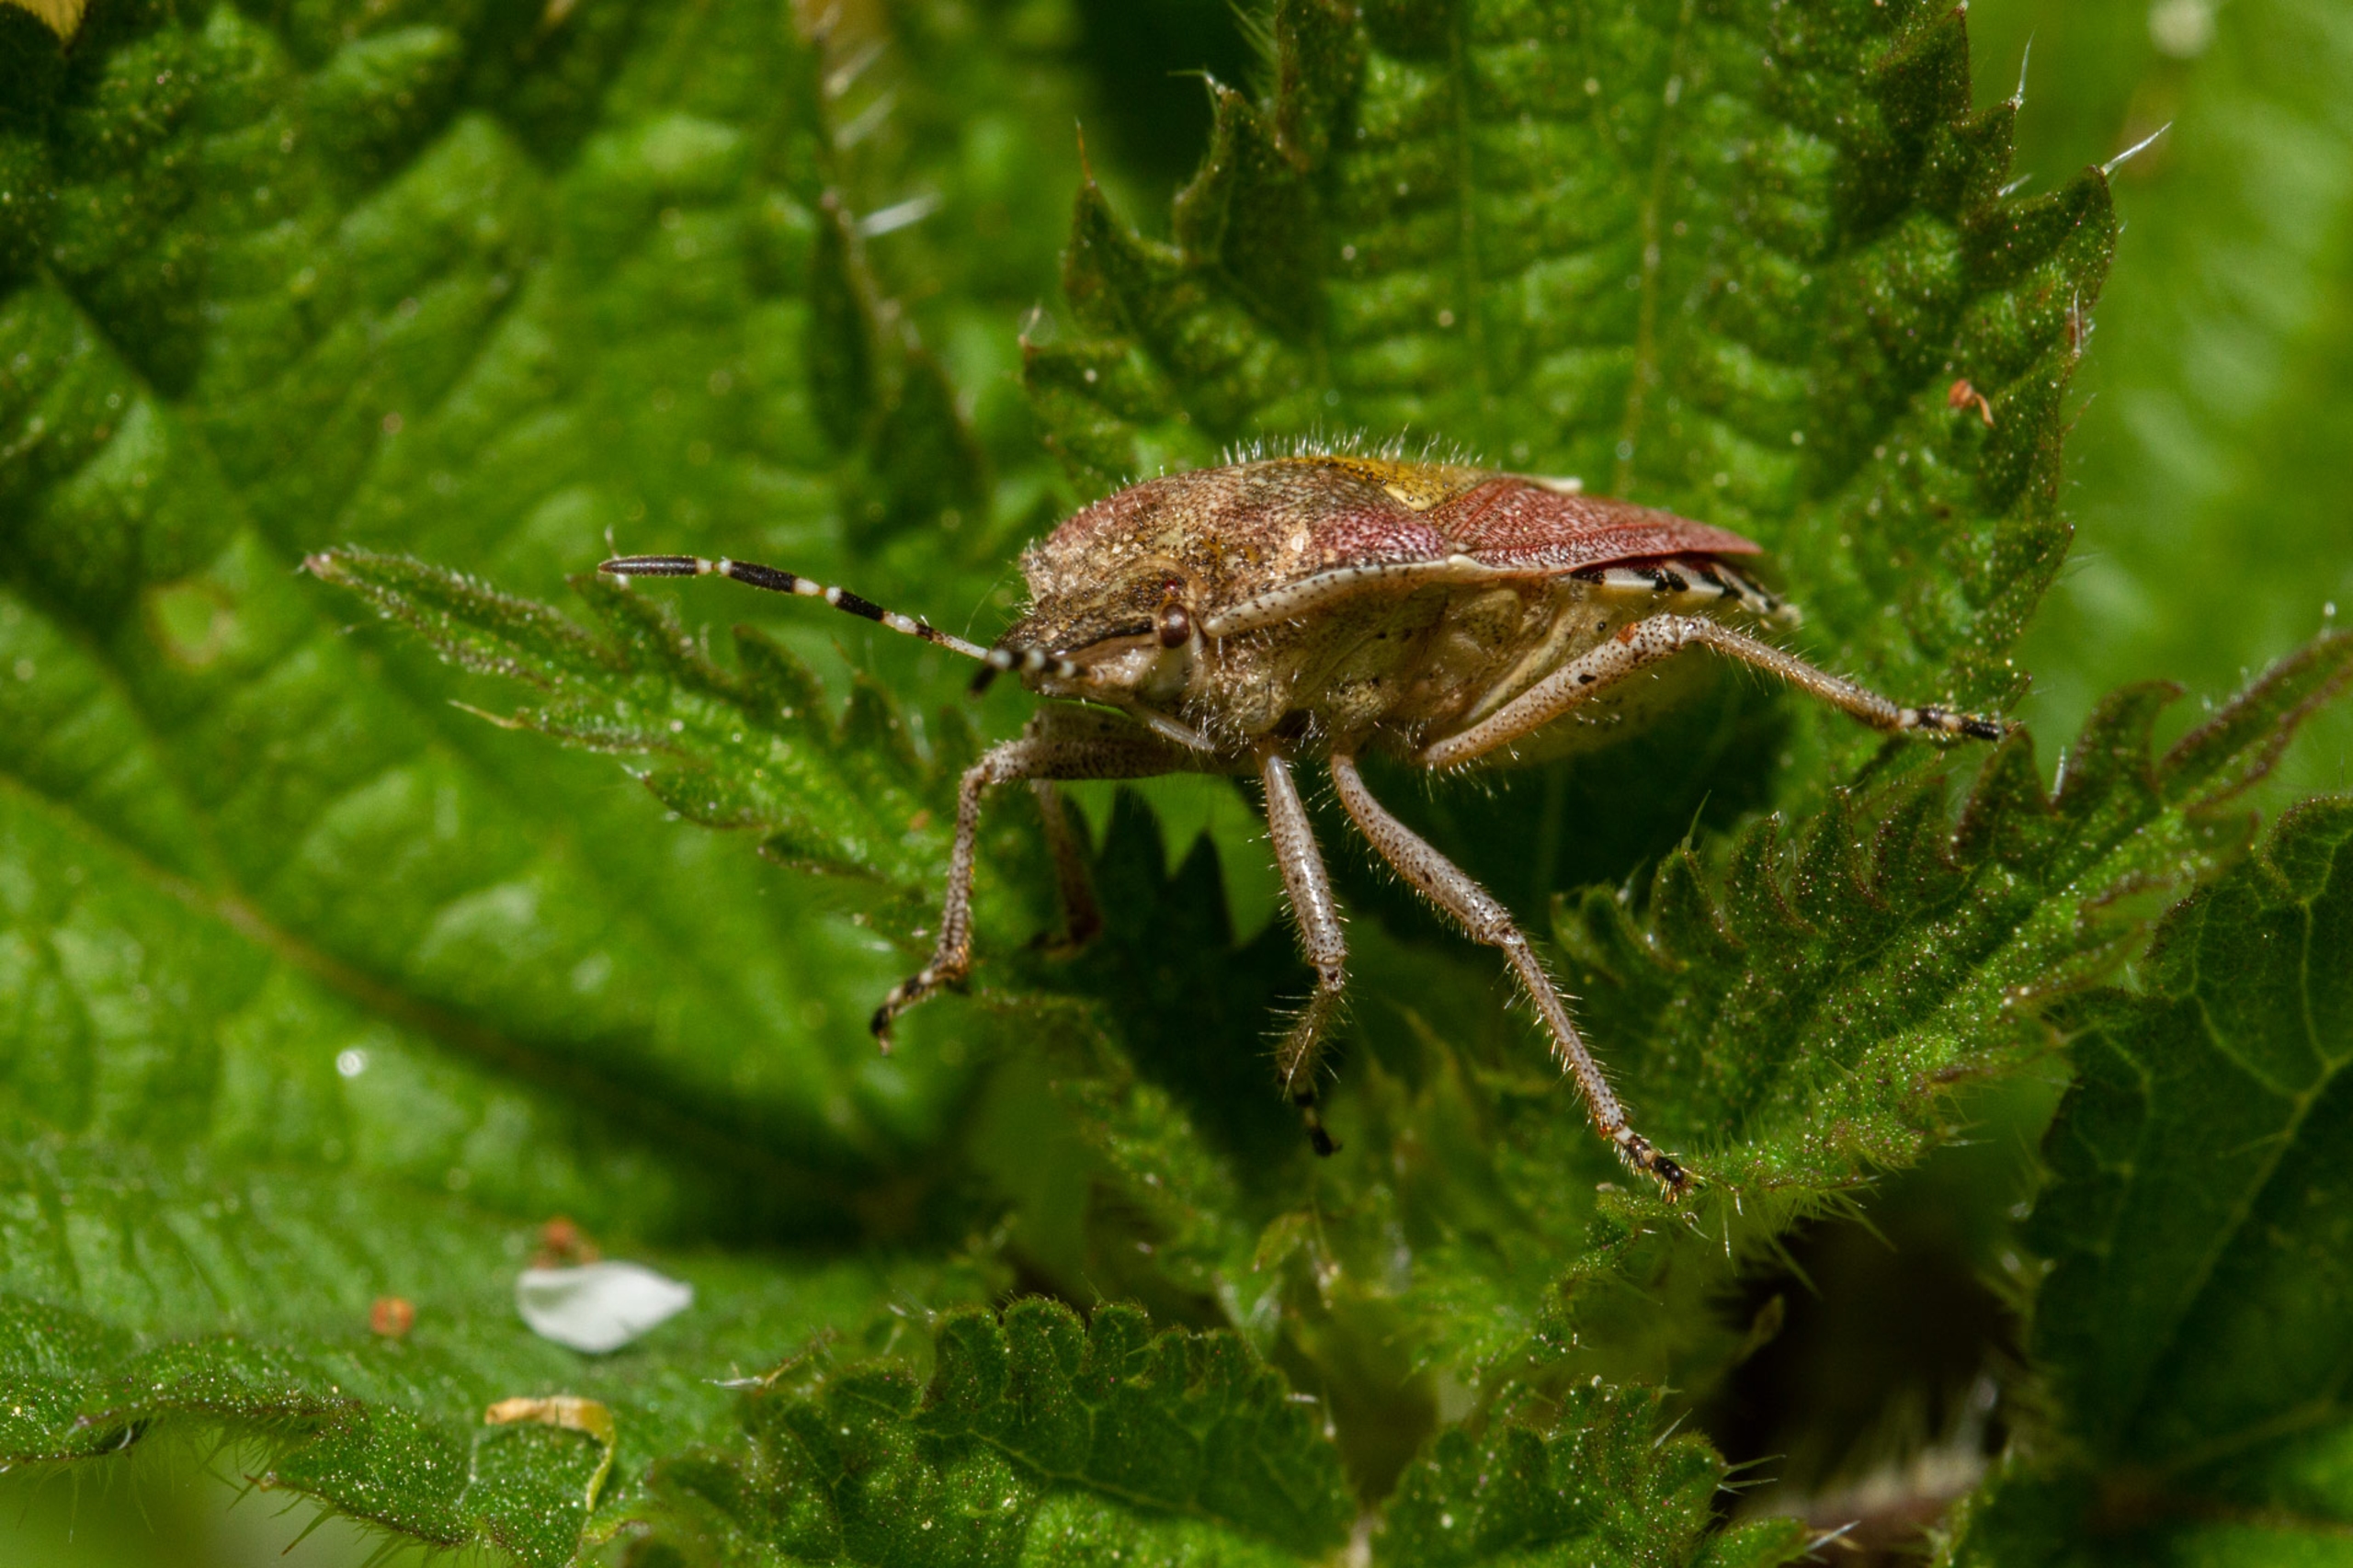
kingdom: Animalia
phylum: Arthropoda
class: Insecta
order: Hemiptera
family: Pentatomidae
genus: Dolycoris
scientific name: Dolycoris baccarum
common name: Almindelig bærtæge
